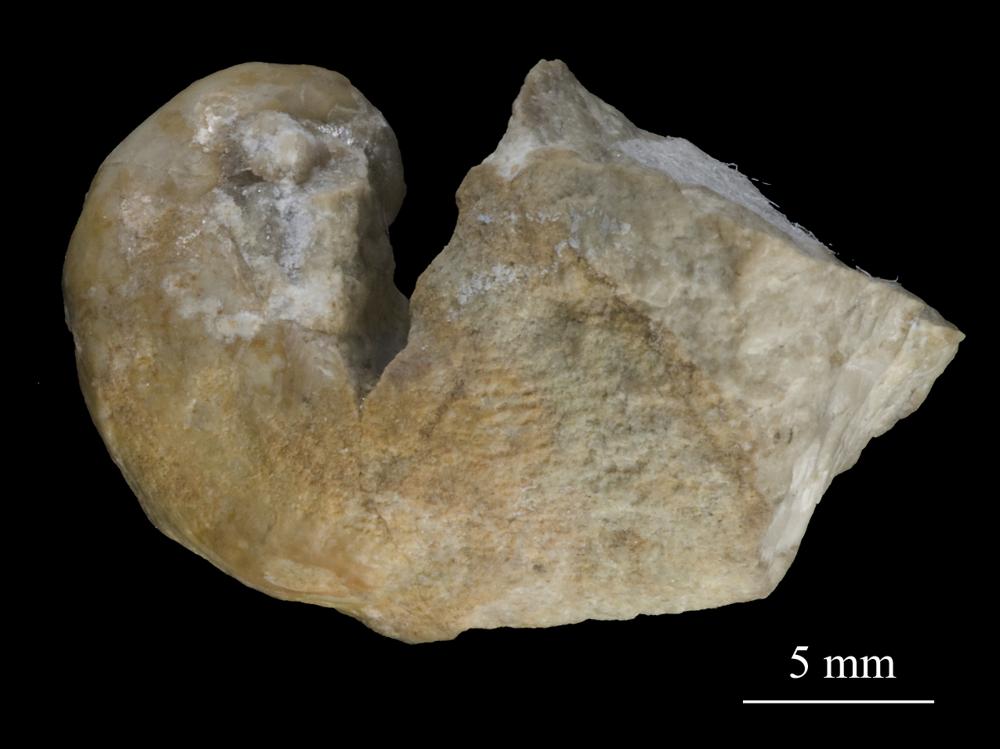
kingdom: Animalia
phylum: Mollusca
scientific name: Mollusca
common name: Mollusca
